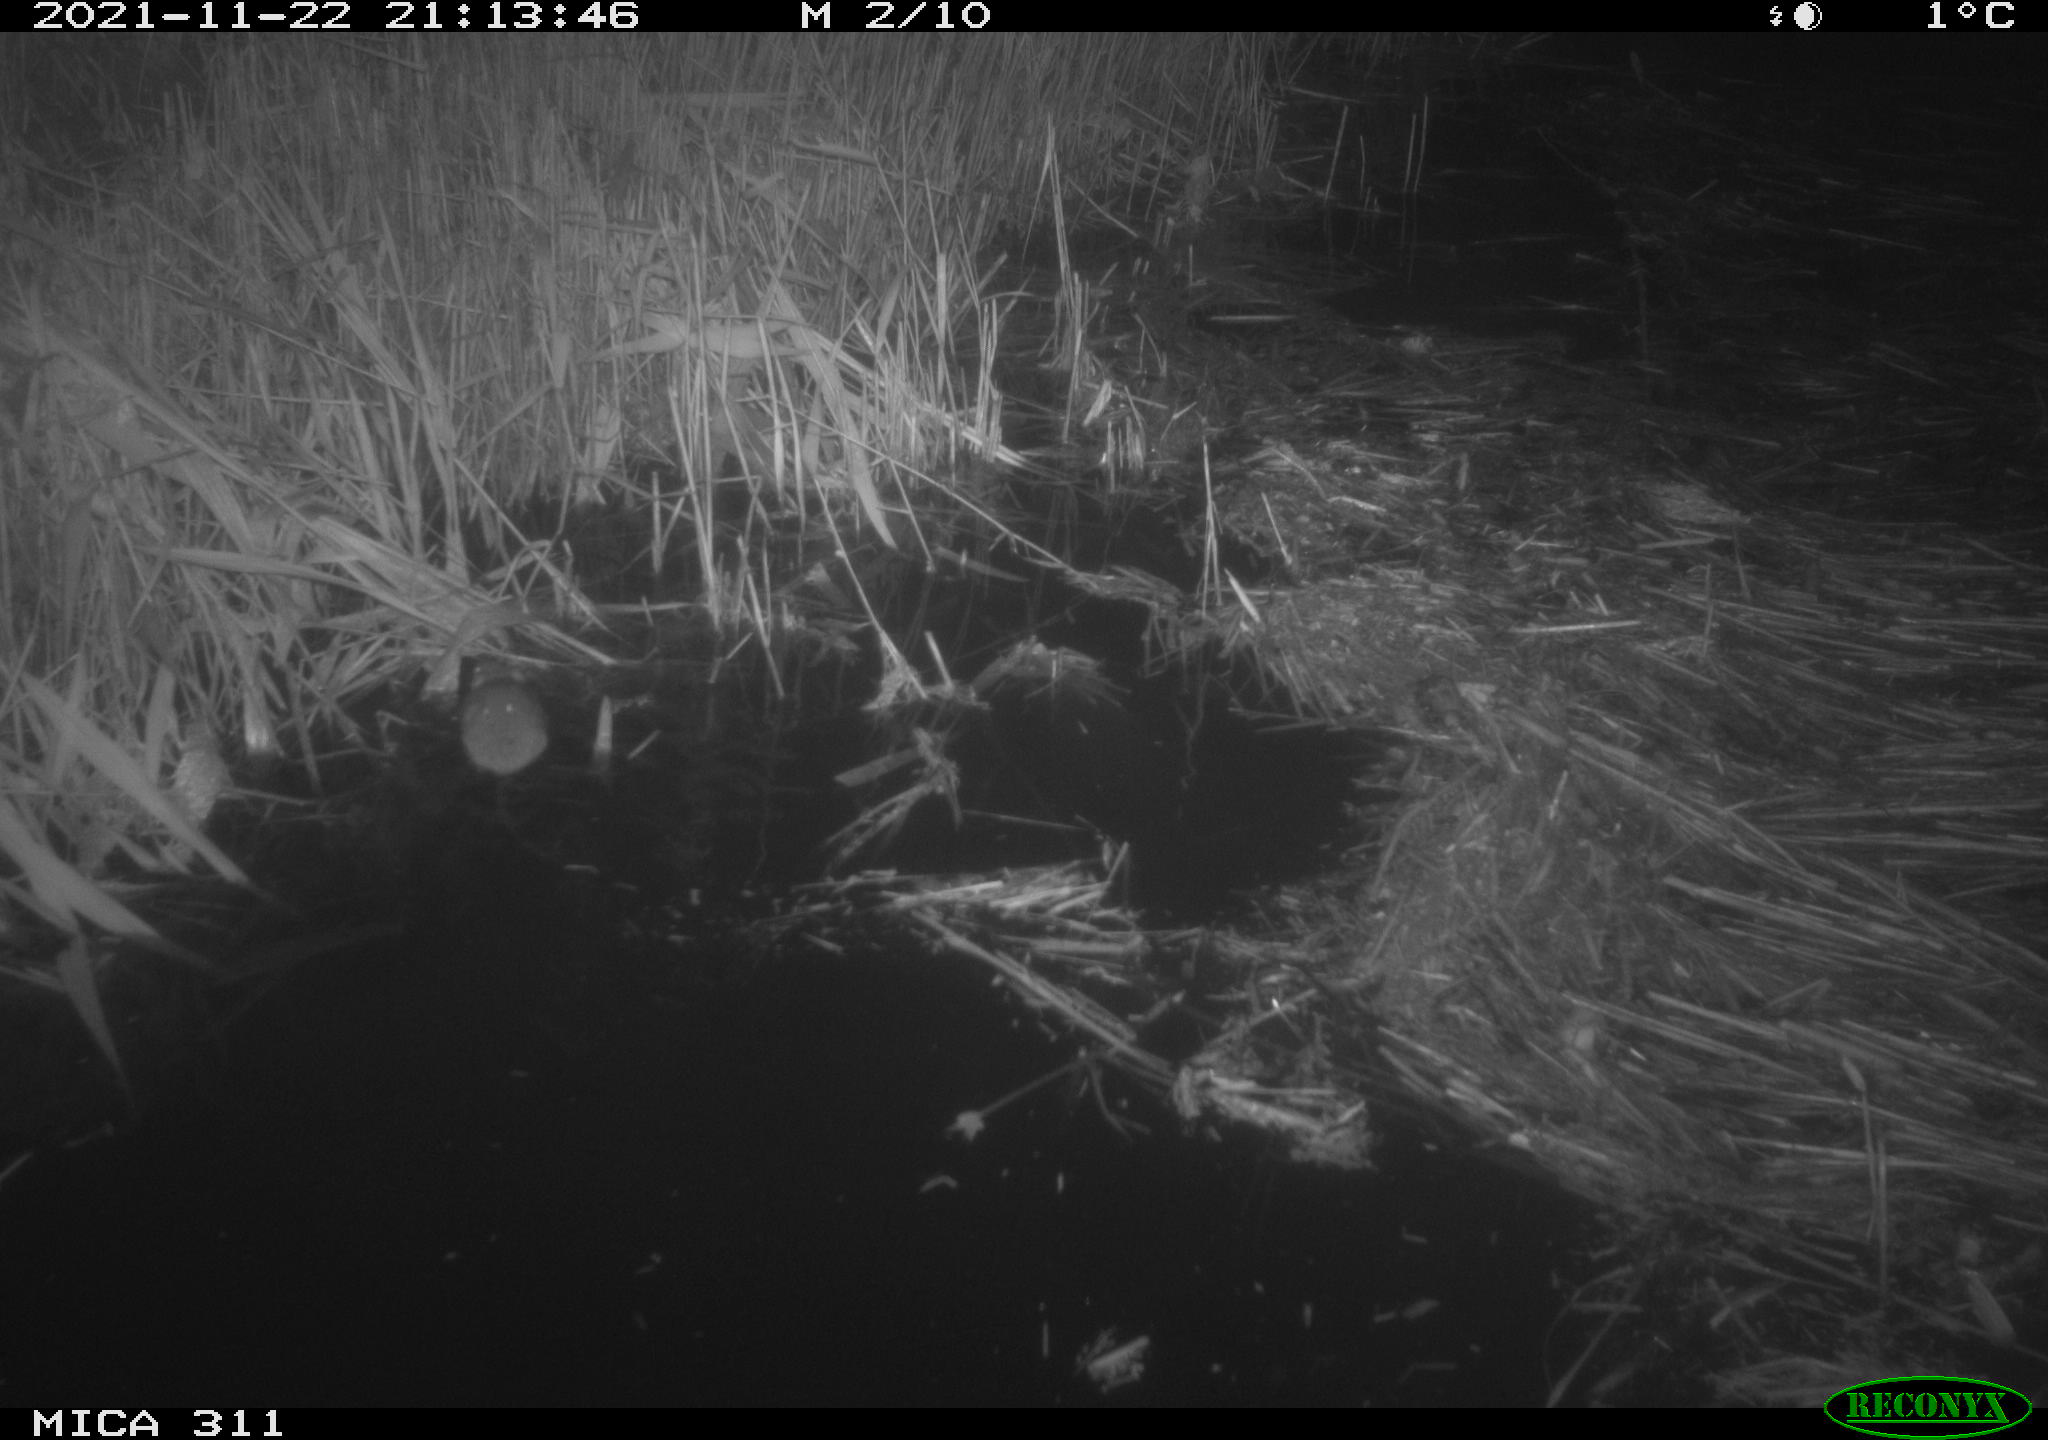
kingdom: Animalia
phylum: Chordata
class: Mammalia
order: Rodentia
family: Muridae
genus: Rattus
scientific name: Rattus norvegicus
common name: Brown rat
